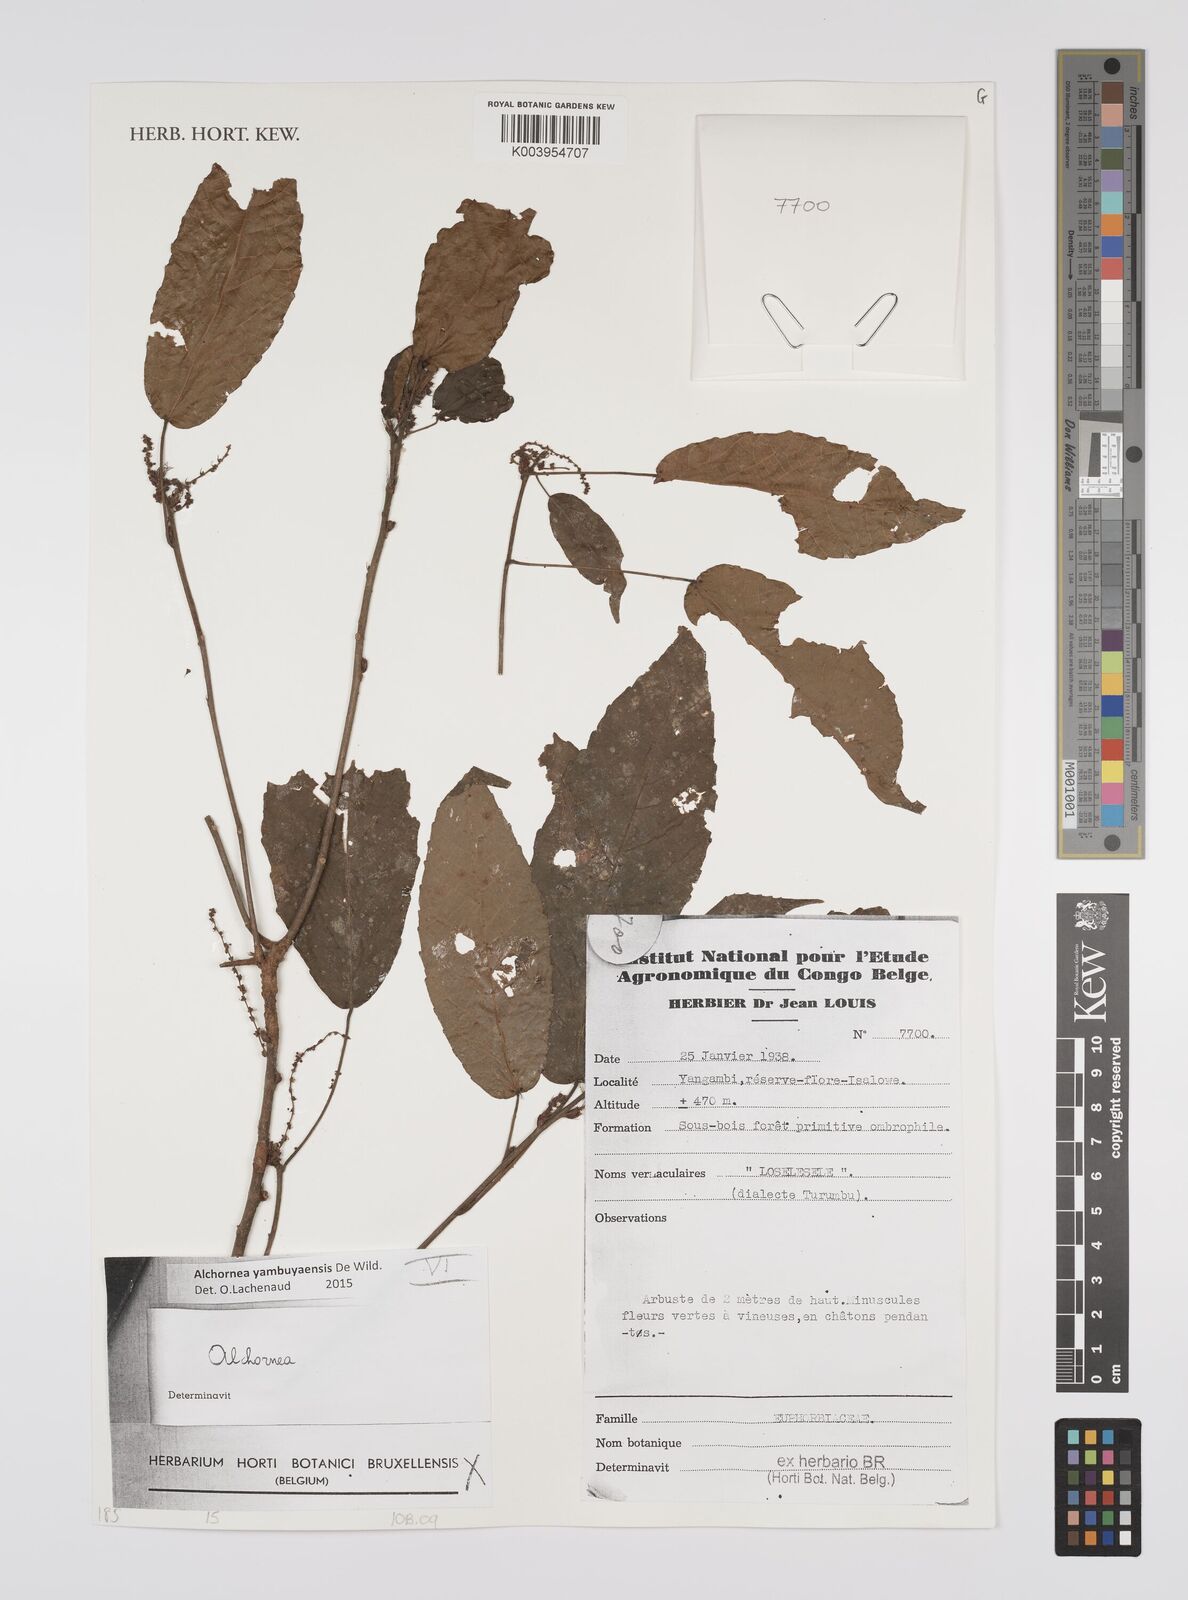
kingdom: Plantae
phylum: Tracheophyta
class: Magnoliopsida
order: Malpighiales
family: Euphorbiaceae
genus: Alchornea
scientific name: Alchornea yambuyaensis
